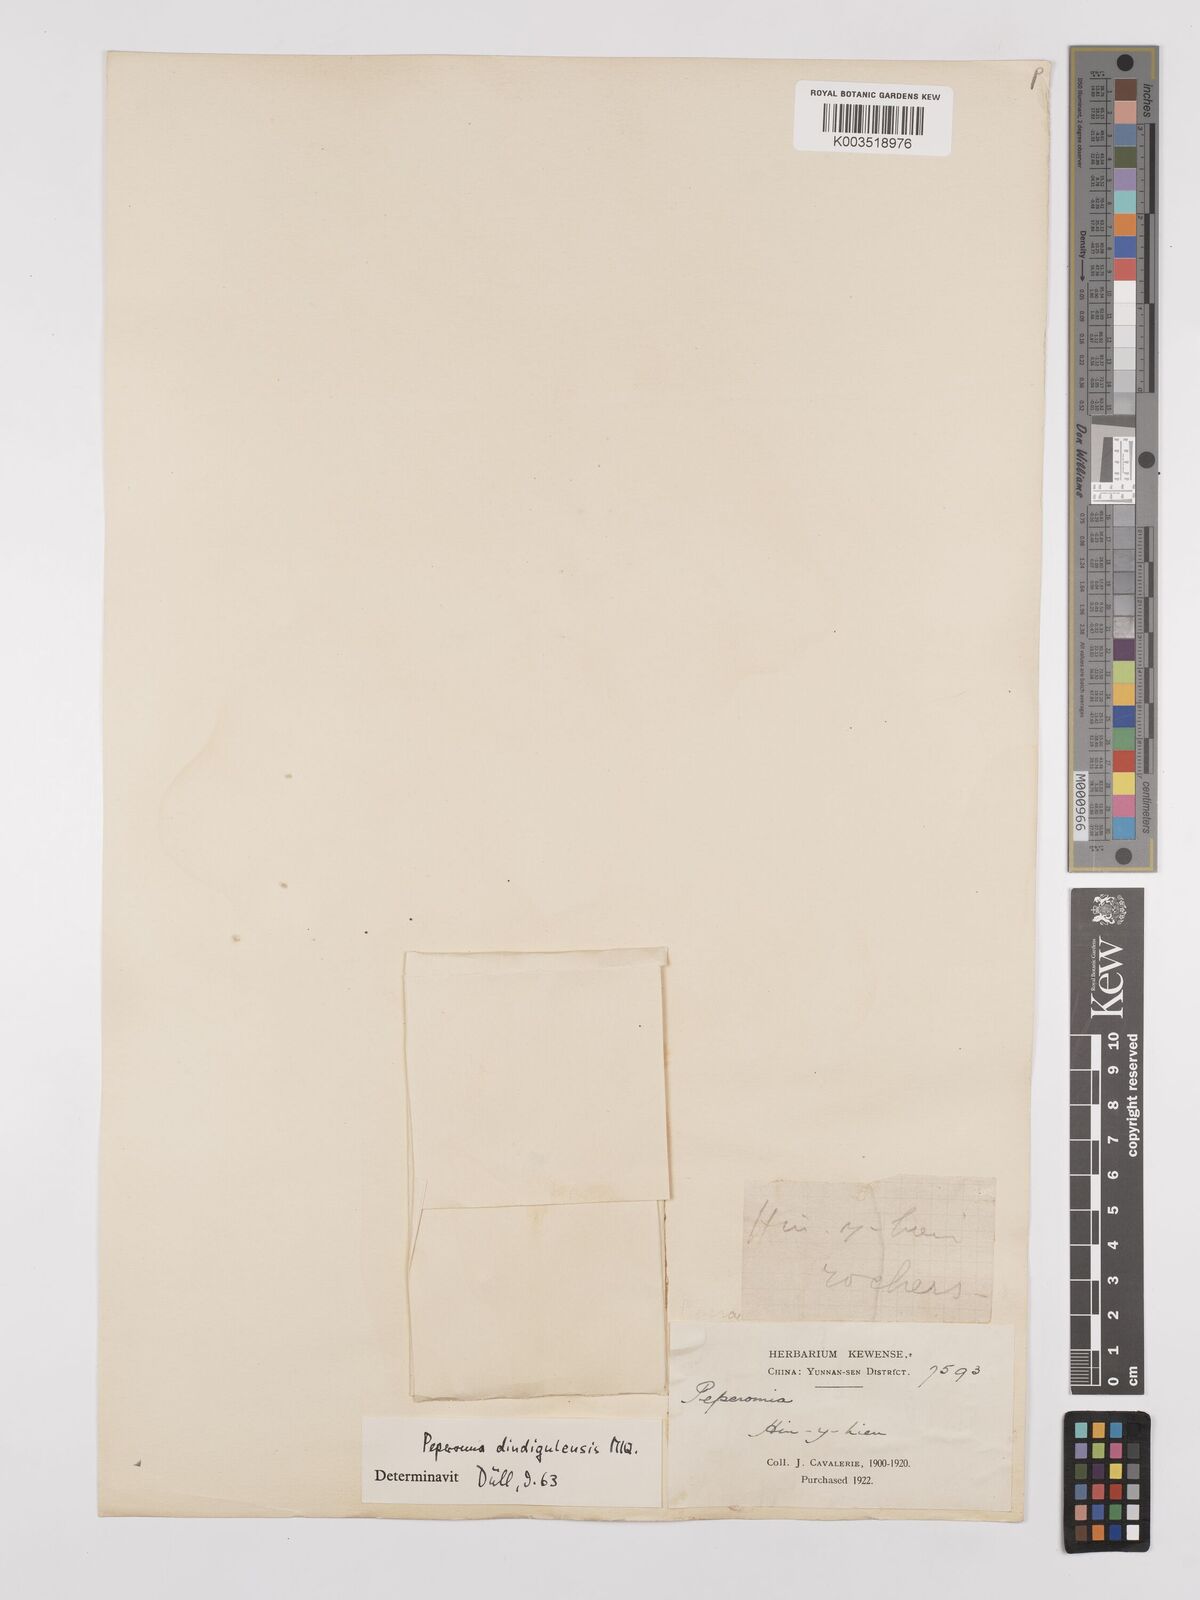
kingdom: Plantae
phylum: Tracheophyta
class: Magnoliopsida
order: Piperales
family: Piperaceae
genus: Peperomia
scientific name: Peperomia leptostachya
